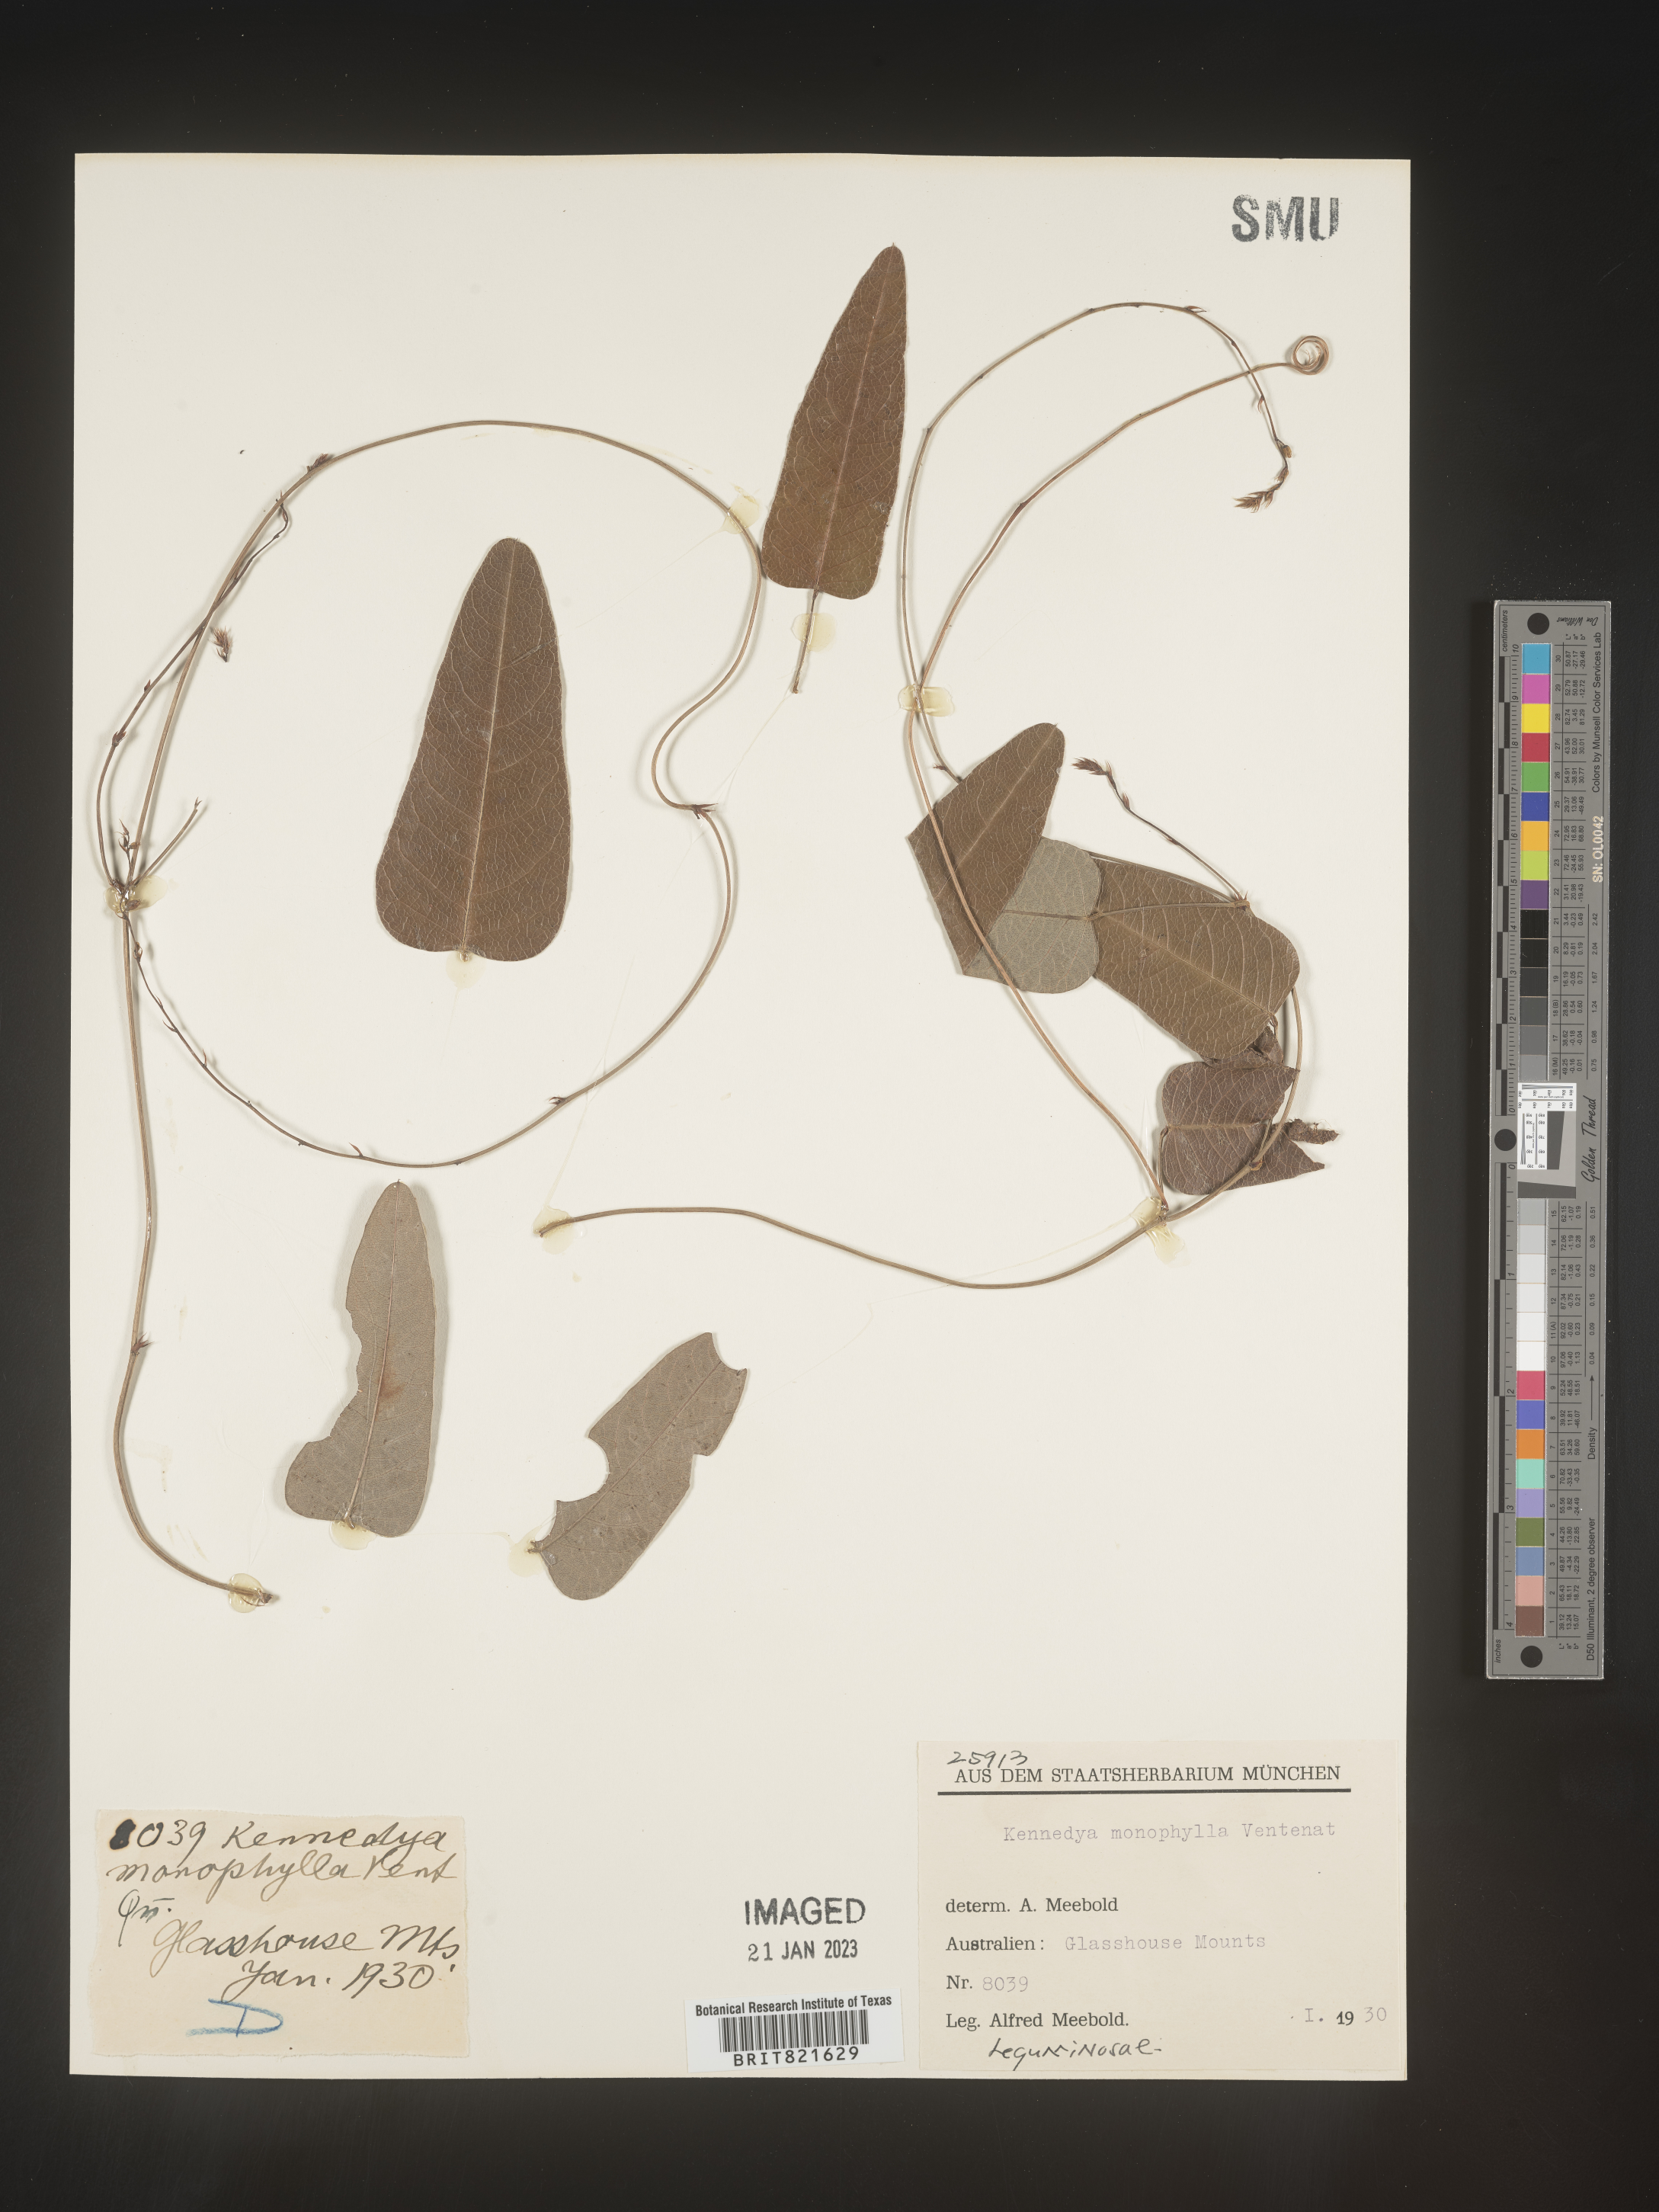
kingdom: Plantae
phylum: Tracheophyta
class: Magnoliopsida
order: Fabales
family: Fabaceae
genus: Kennedya
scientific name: Kennedya
